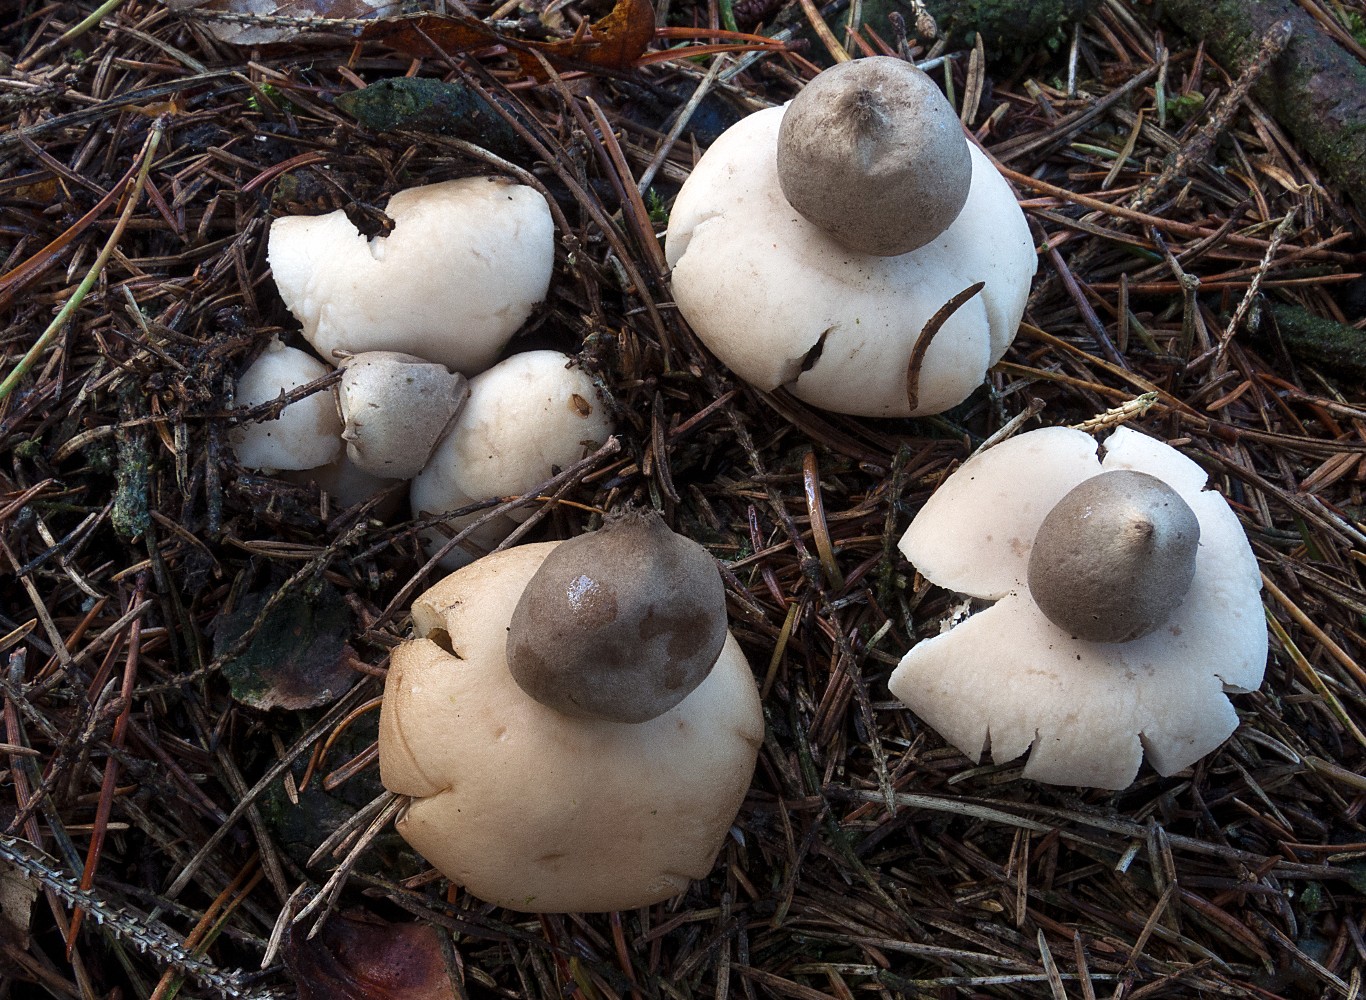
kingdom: Fungi
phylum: Basidiomycota
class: Agaricomycetes
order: Geastrales
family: Geastraceae
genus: Geastrum
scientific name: Geastrum fimbriatum
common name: frynset stjernebold
